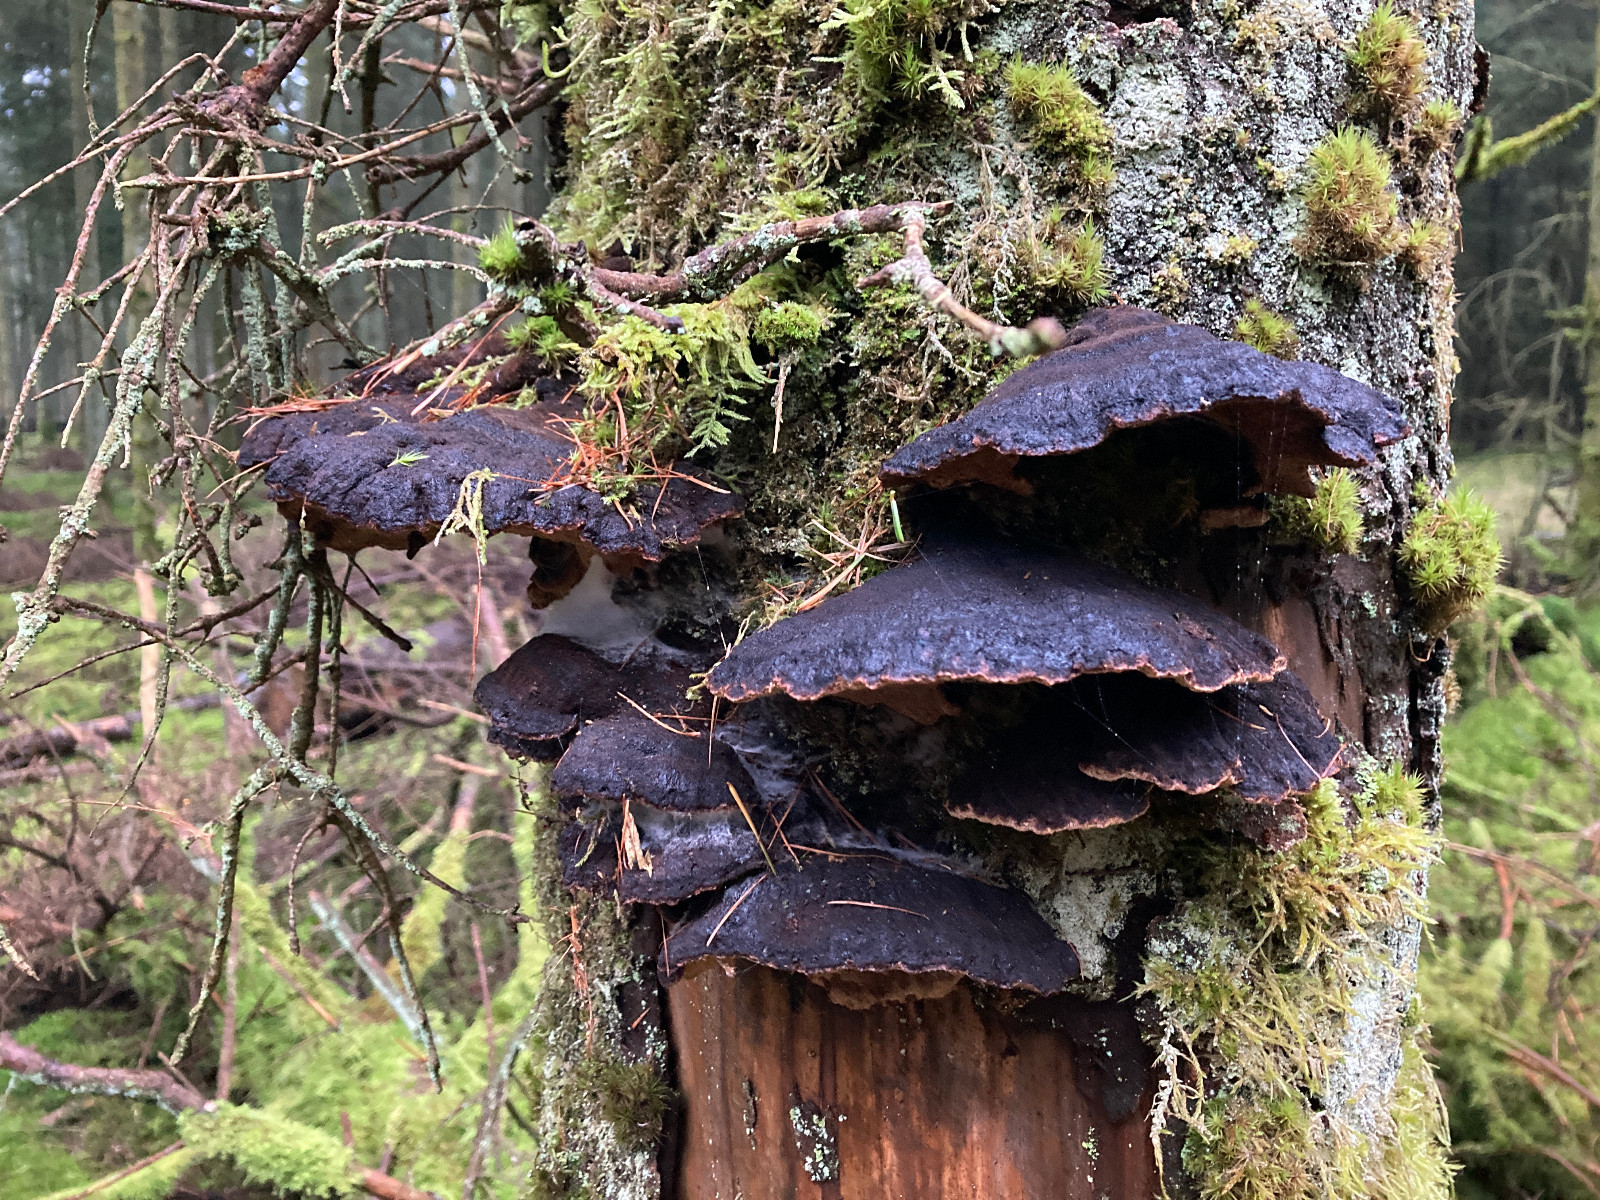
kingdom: Fungi
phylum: Basidiomycota
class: Agaricomycetes
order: Polyporales
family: Ischnodermataceae
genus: Ischnoderma
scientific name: Ischnoderma benzoinum
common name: gran-tjæreporesvamp
